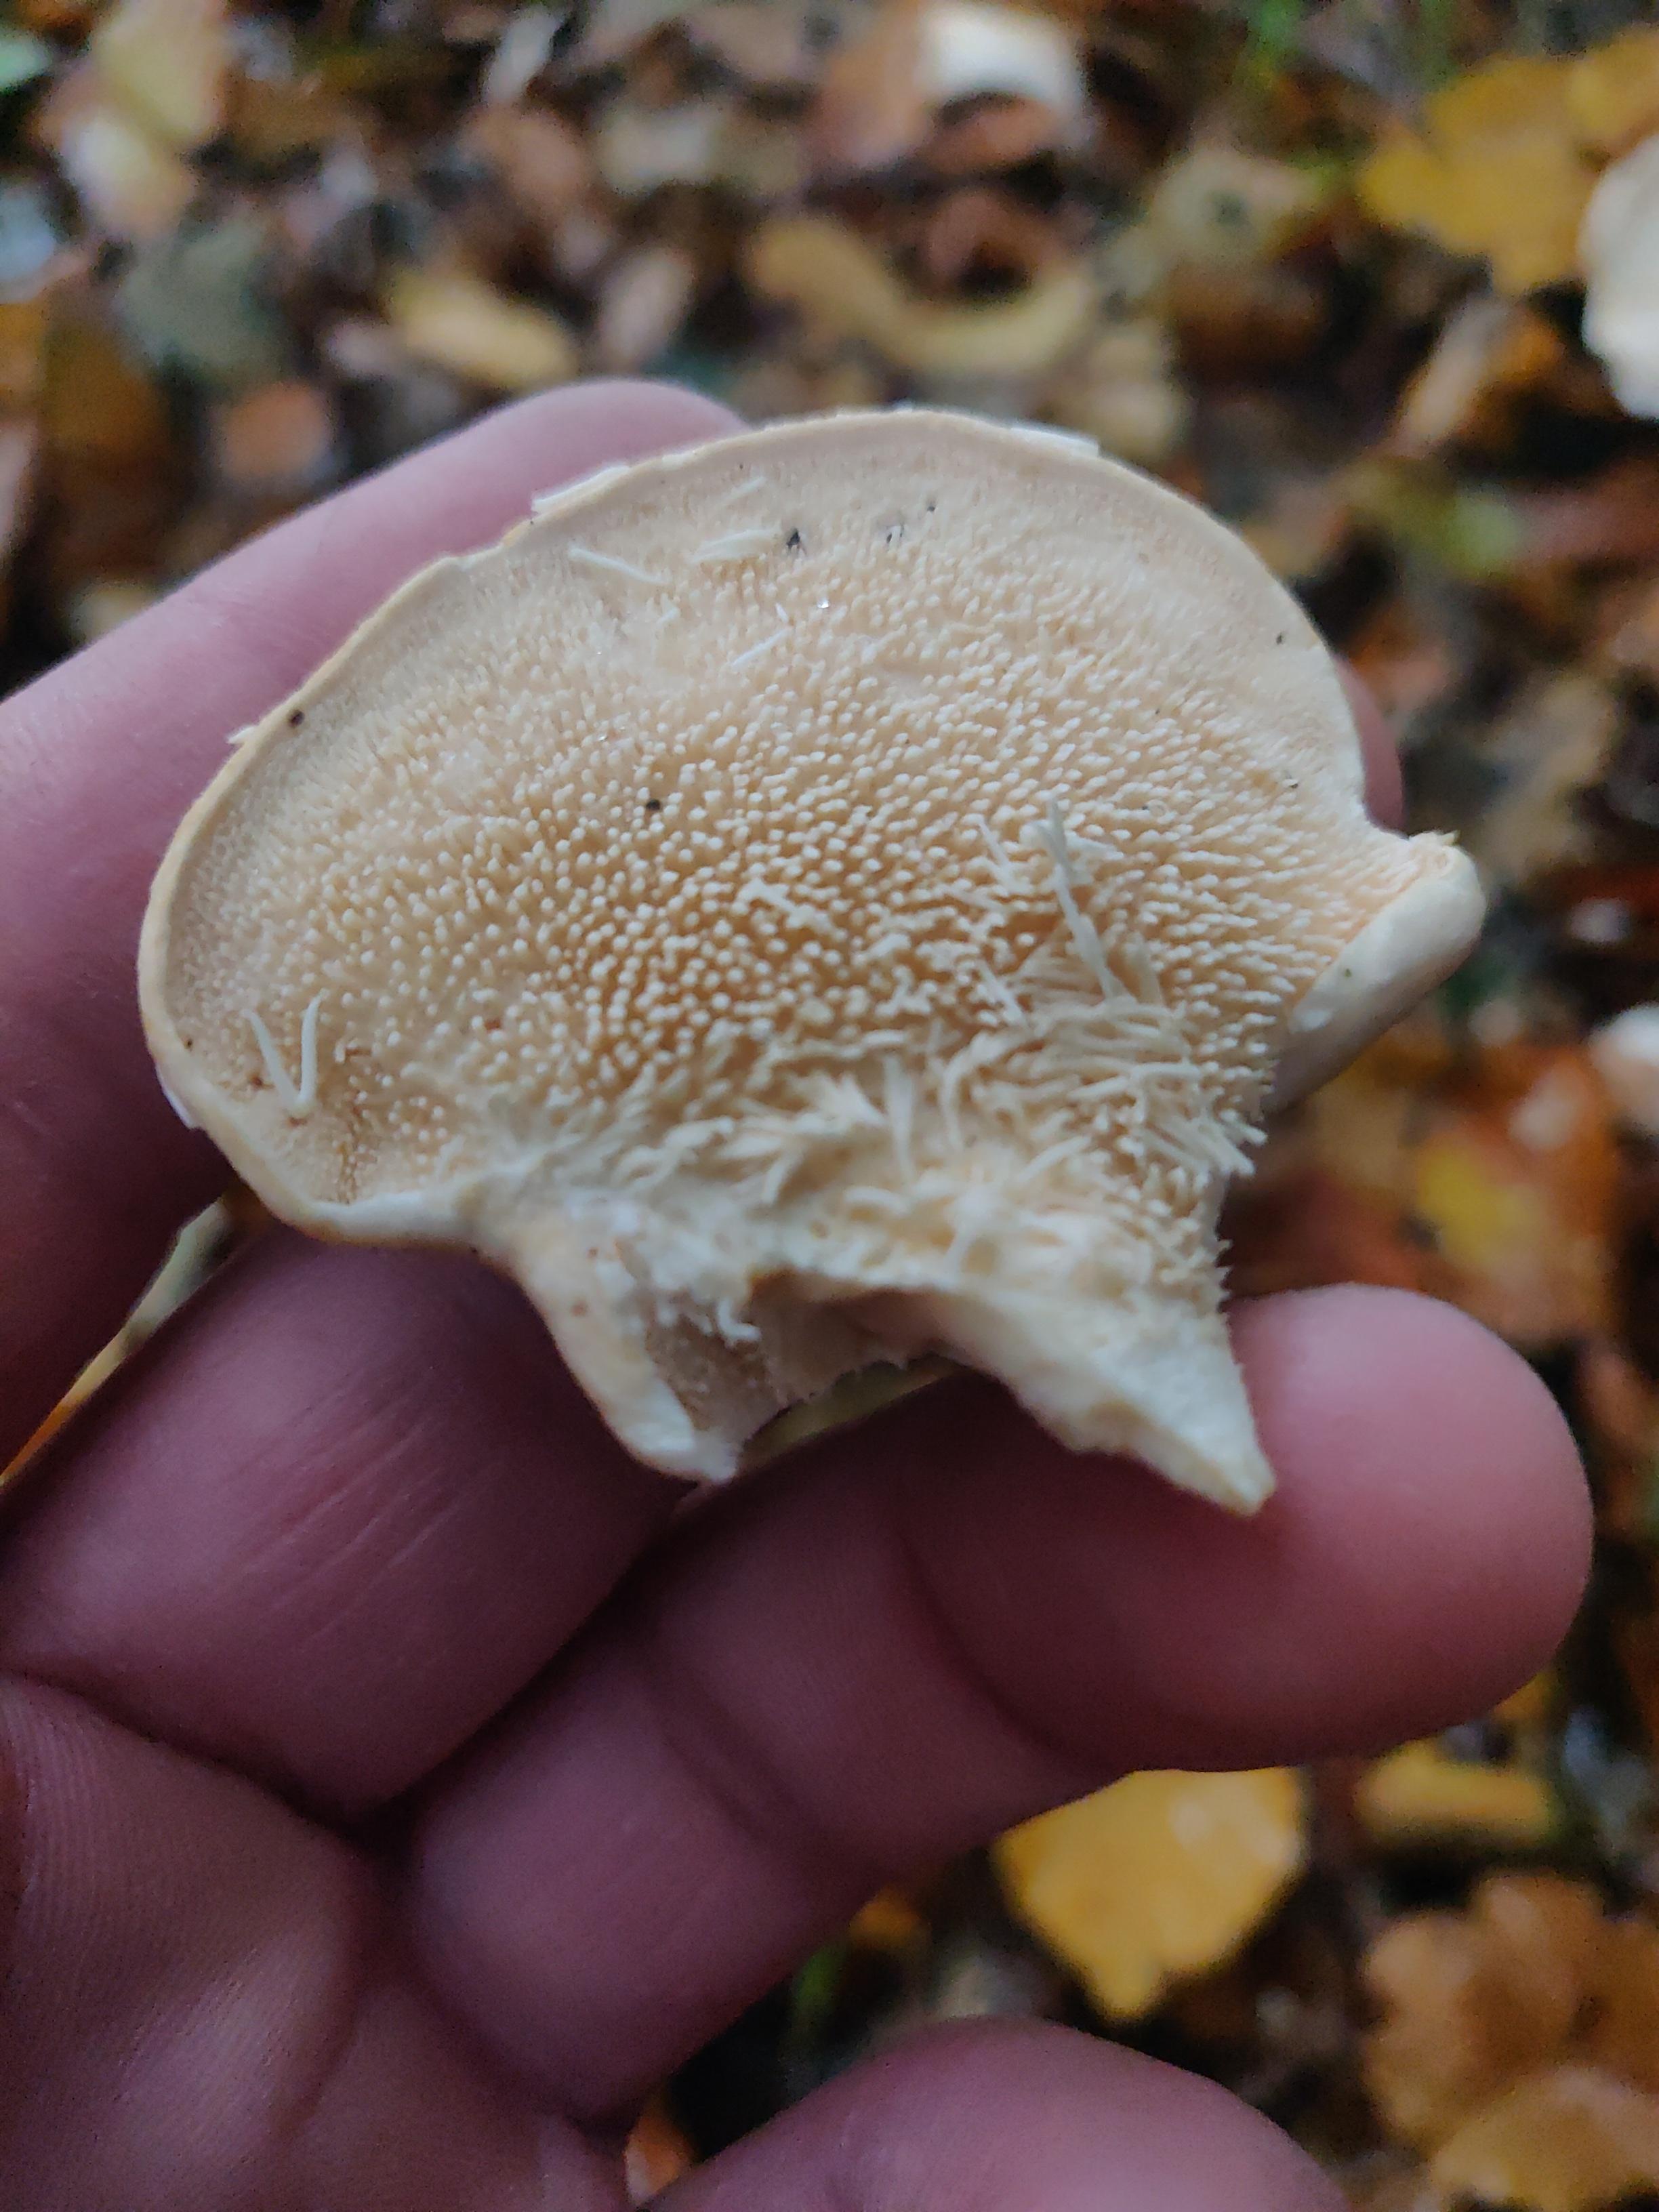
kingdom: Fungi
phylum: Basidiomycota
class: Agaricomycetes
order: Cantharellales
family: Hydnaceae
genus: Hydnum
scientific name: Hydnum repandum
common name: almindelig pigsvamp
